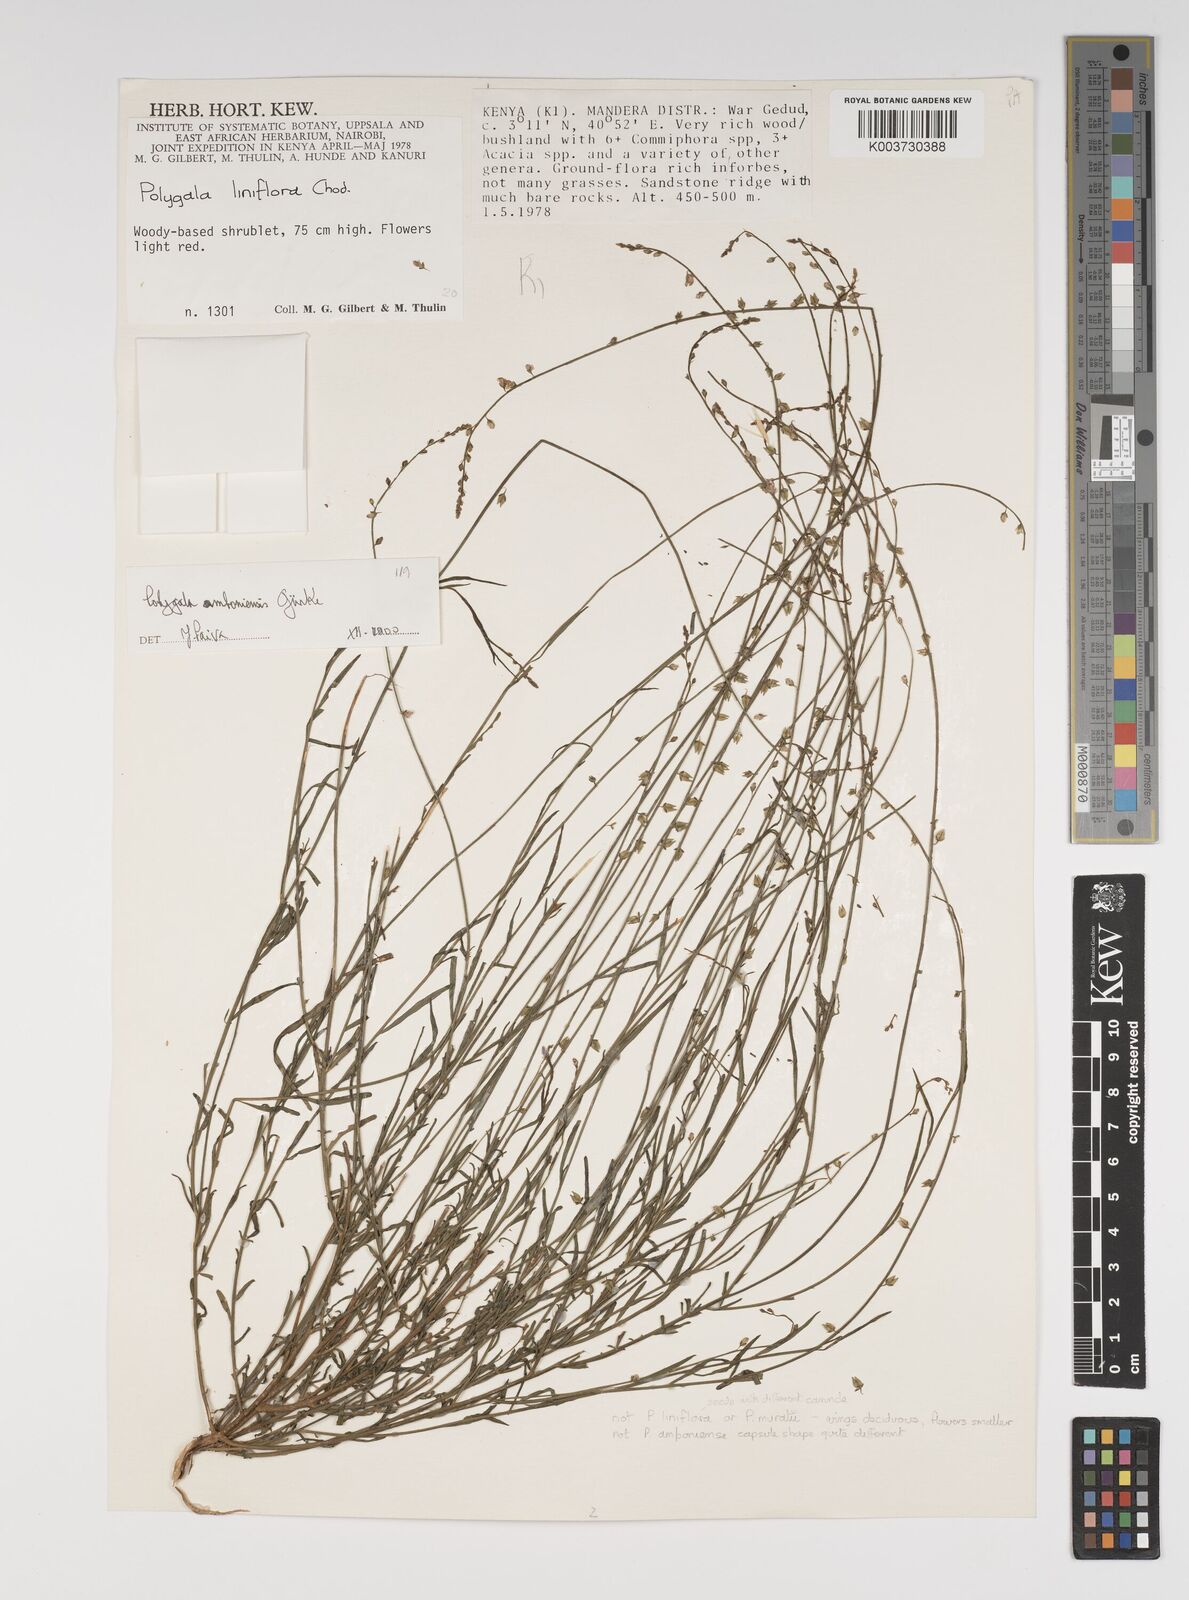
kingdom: Plantae
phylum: Tracheophyta
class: Magnoliopsida
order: Fabales
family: Polygalaceae
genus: Polygala
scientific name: Polygala amboniensis
